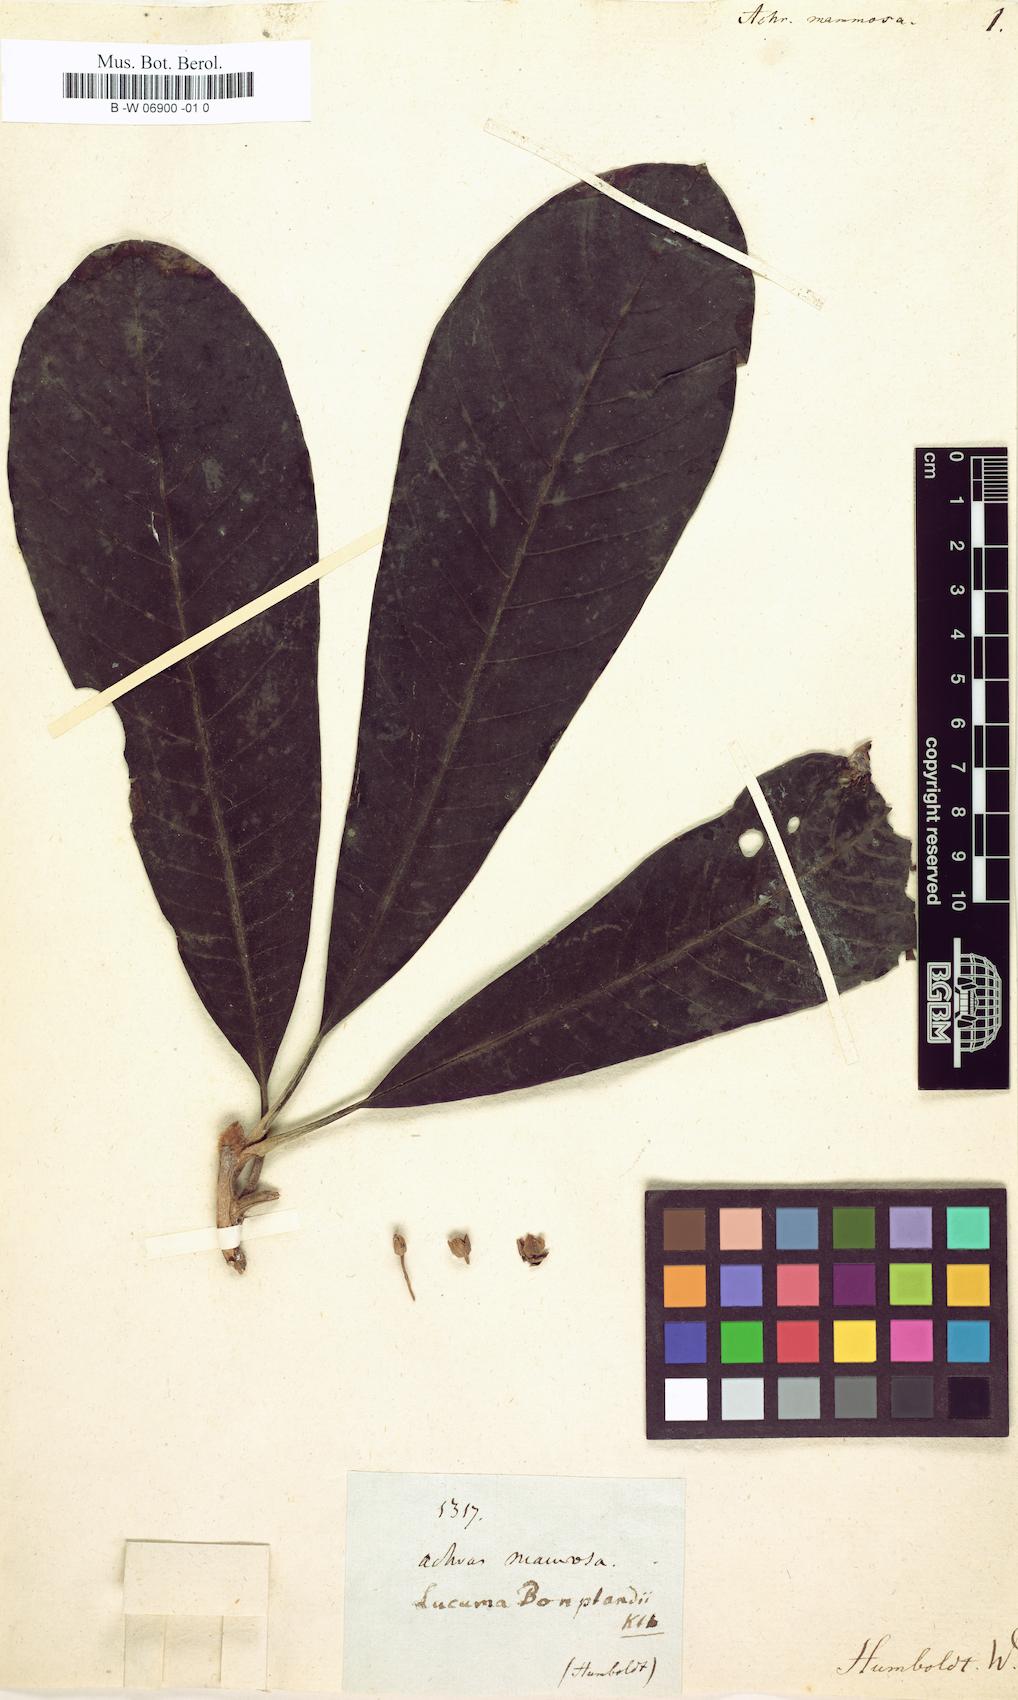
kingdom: Plantae
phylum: Tracheophyta
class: Magnoliopsida
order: Ericales
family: Sapotaceae
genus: Pouteria
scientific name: Pouteria sapota
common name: Mamey
